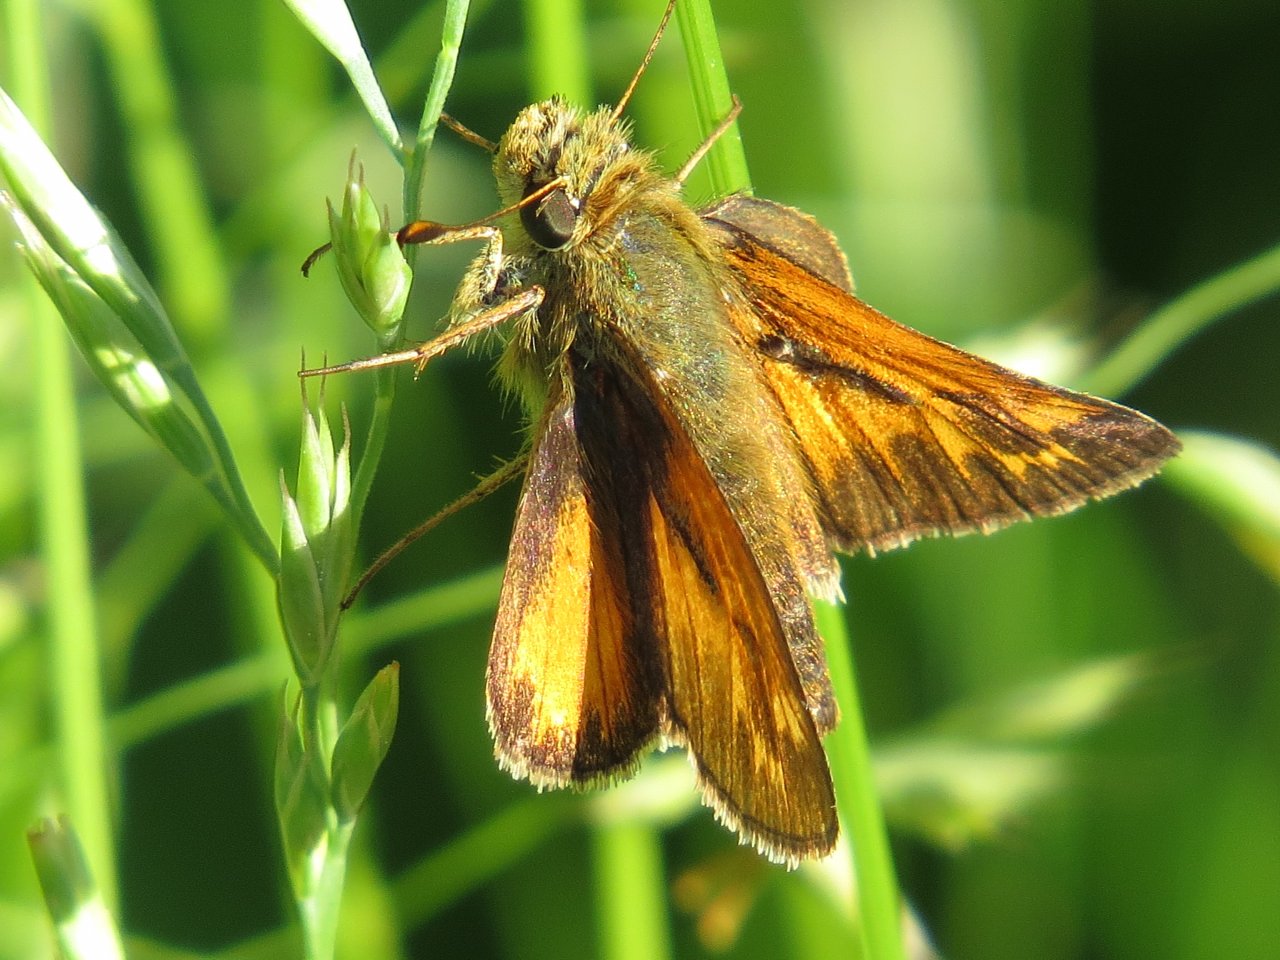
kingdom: Animalia
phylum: Arthropoda
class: Insecta
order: Lepidoptera
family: Hesperiidae
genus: Hesperia
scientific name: Hesperia sassacus
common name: Sassacus Skipper
